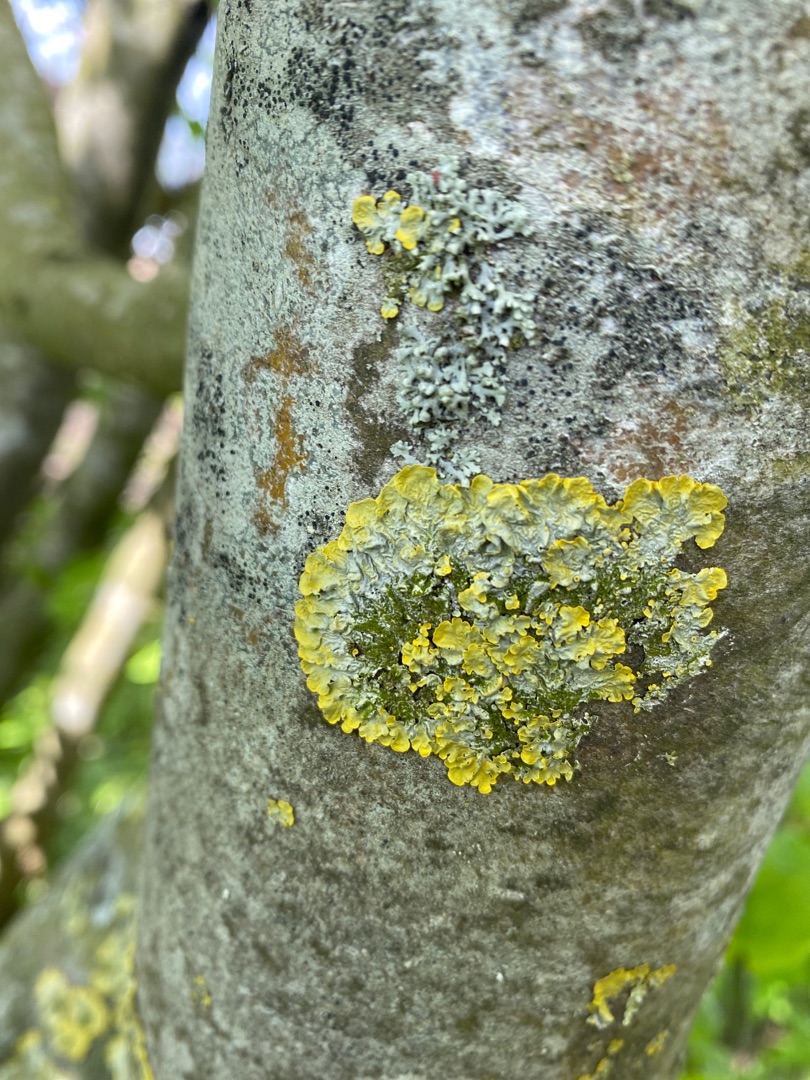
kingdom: Fungi
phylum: Ascomycota
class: Lecanoromycetes
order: Teloschistales
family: Teloschistaceae
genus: Xanthoria
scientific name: Xanthoria parietina
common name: Almindelig væggelav
